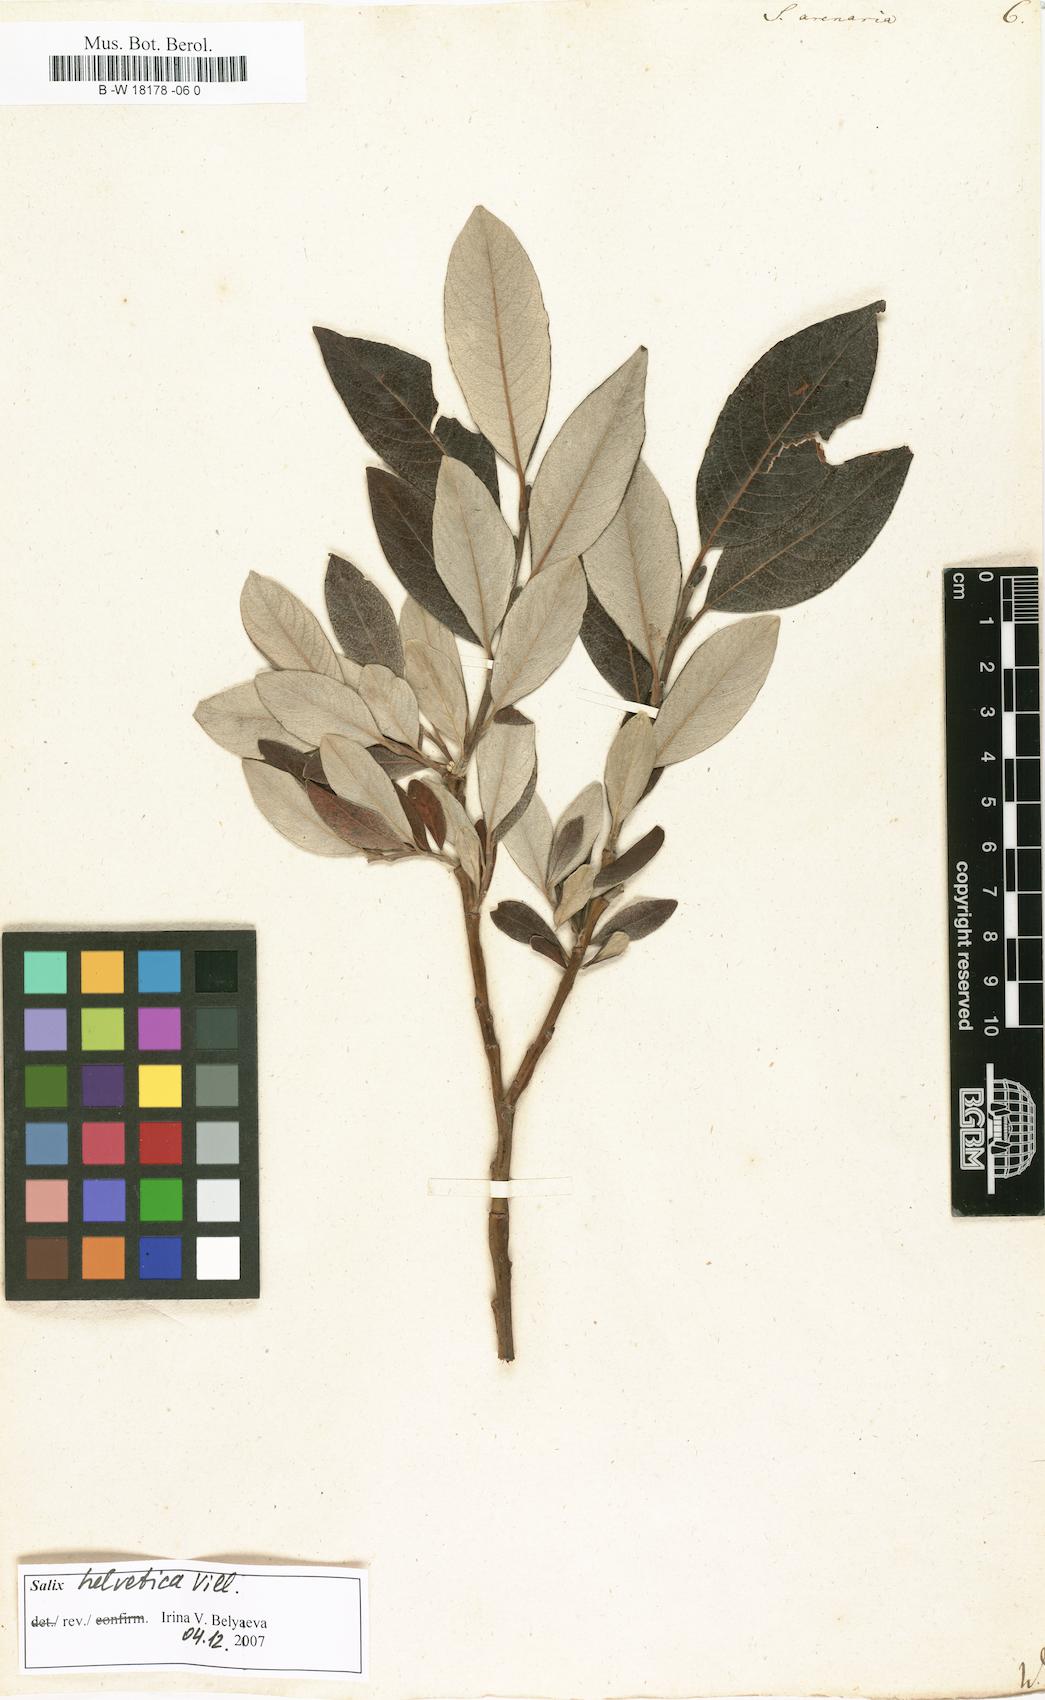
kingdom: Plantae
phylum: Tracheophyta
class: Magnoliopsida
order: Malpighiales
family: Salicaceae
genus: Salix
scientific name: Salix repens
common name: Creeping willow
